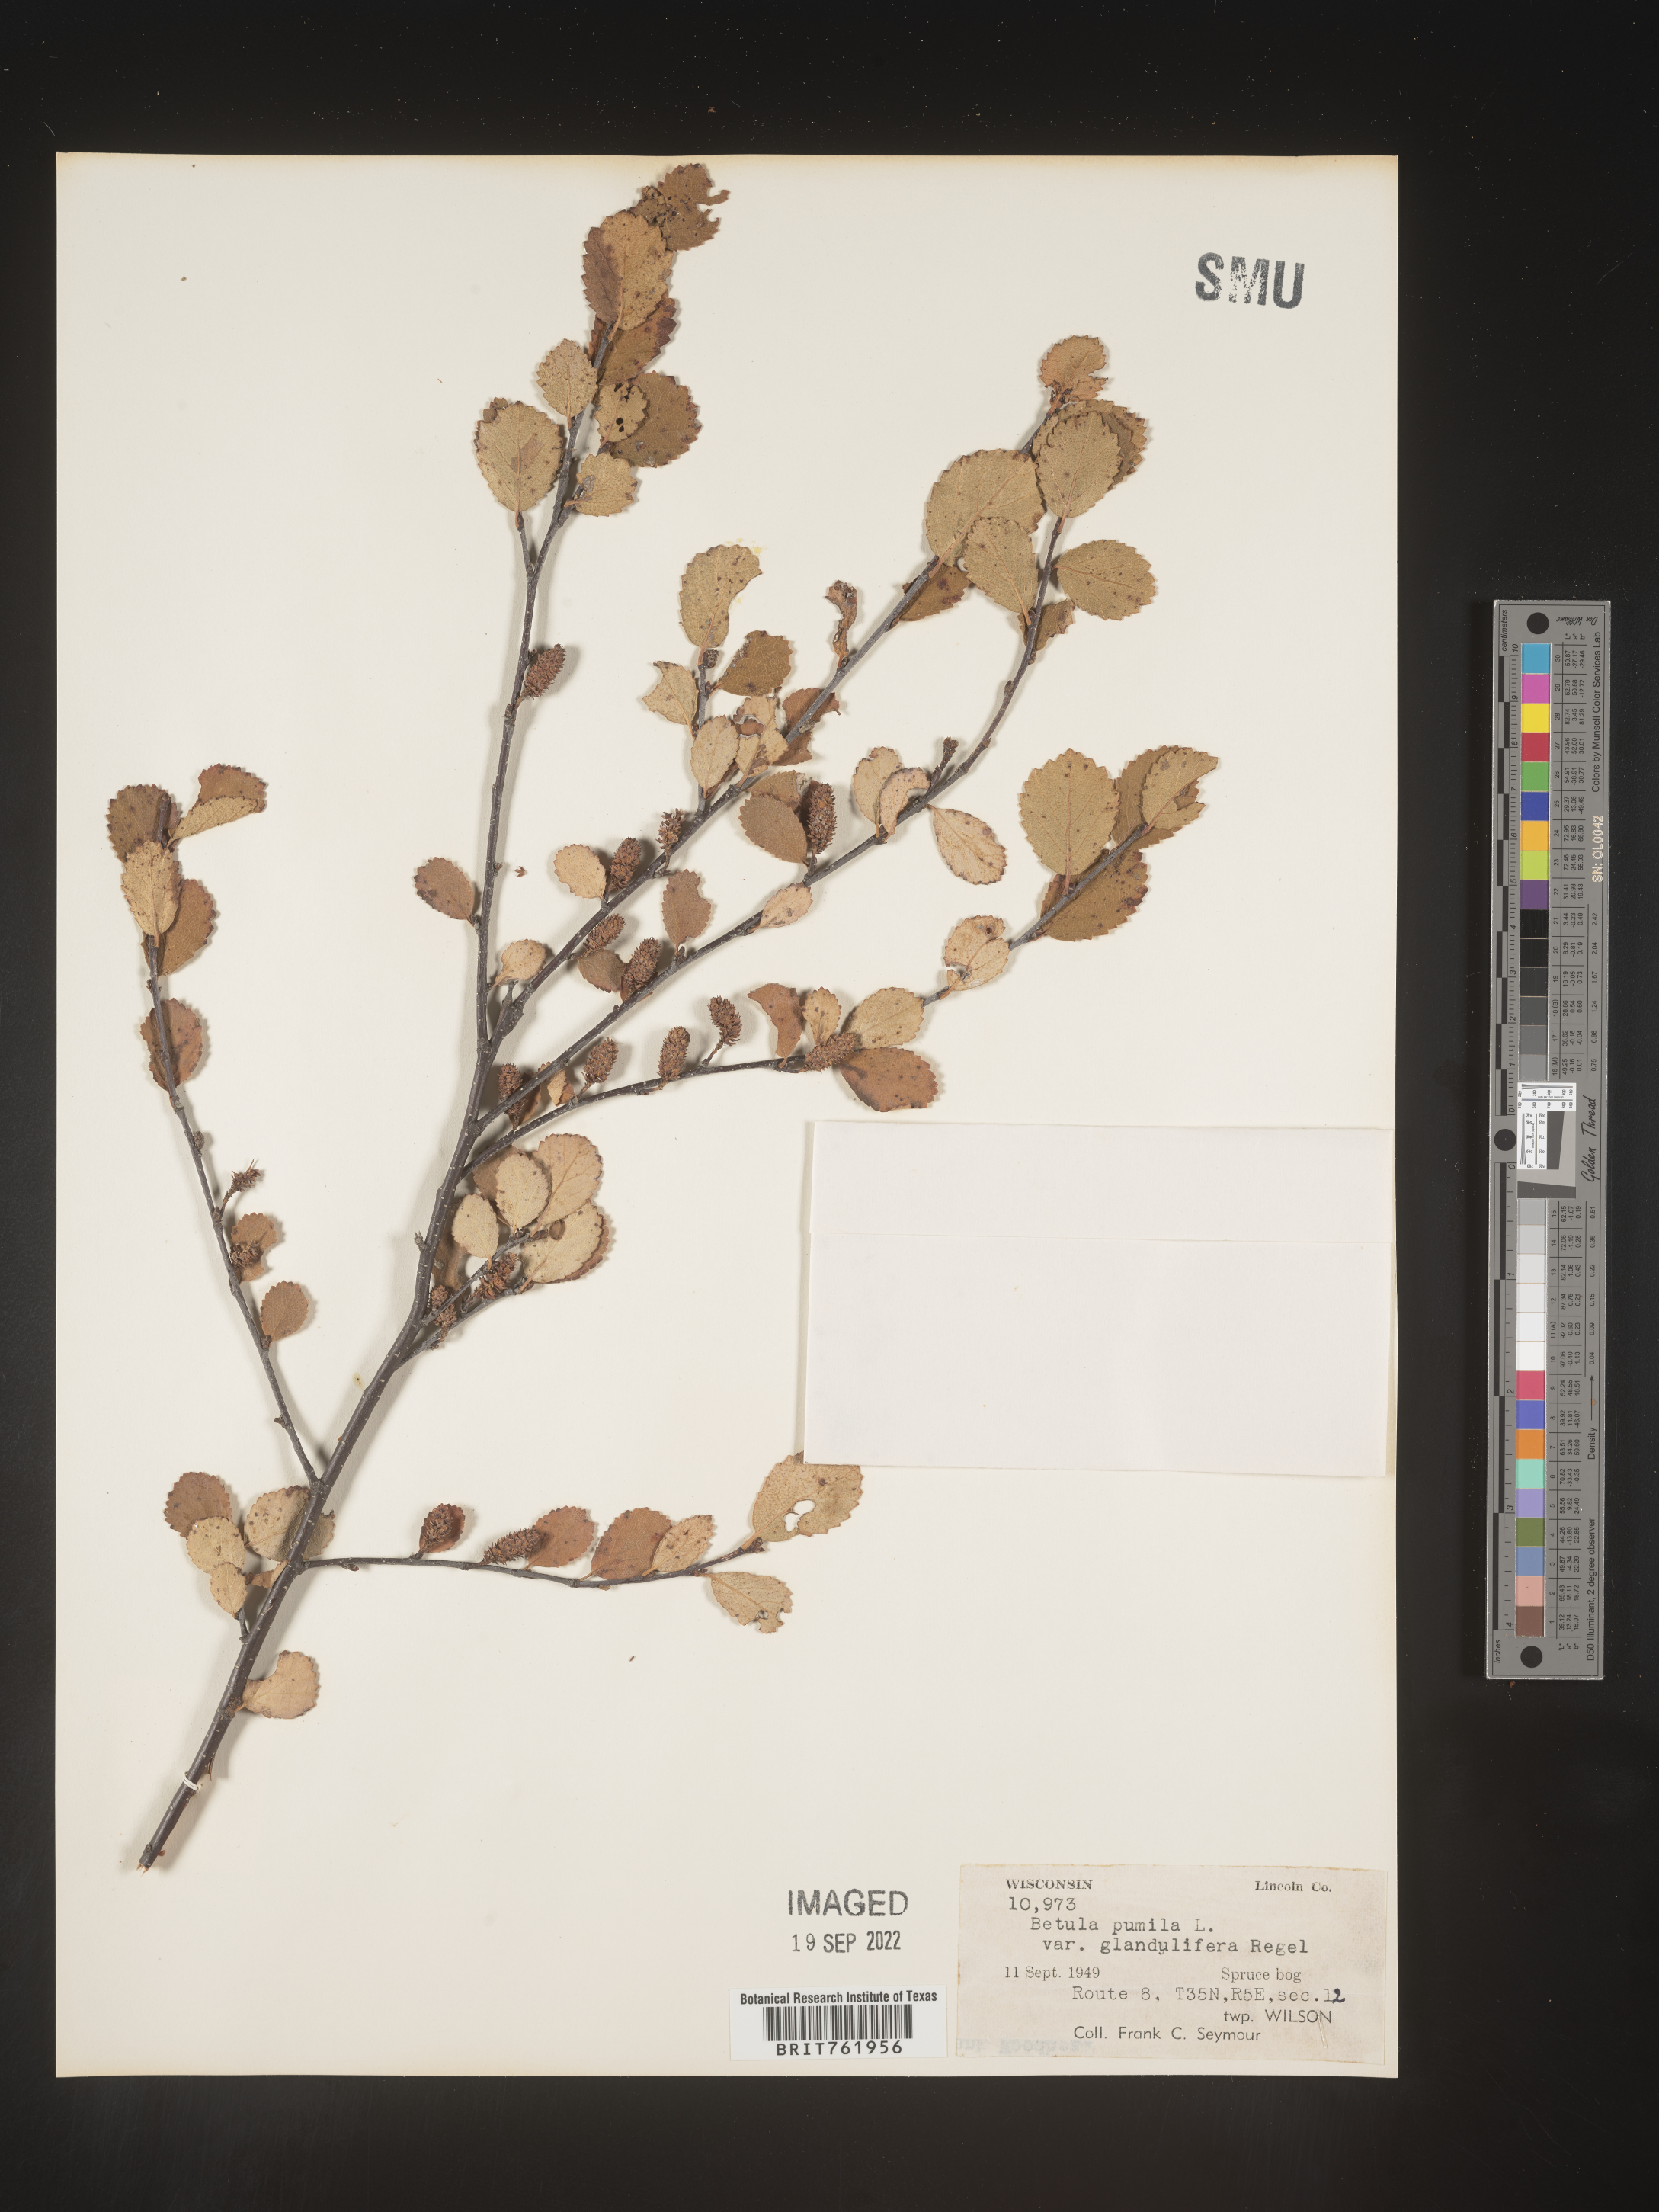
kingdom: Plantae
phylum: Tracheophyta
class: Magnoliopsida
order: Fagales
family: Betulaceae
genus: Betula
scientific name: Betula pumila
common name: Bog birch
